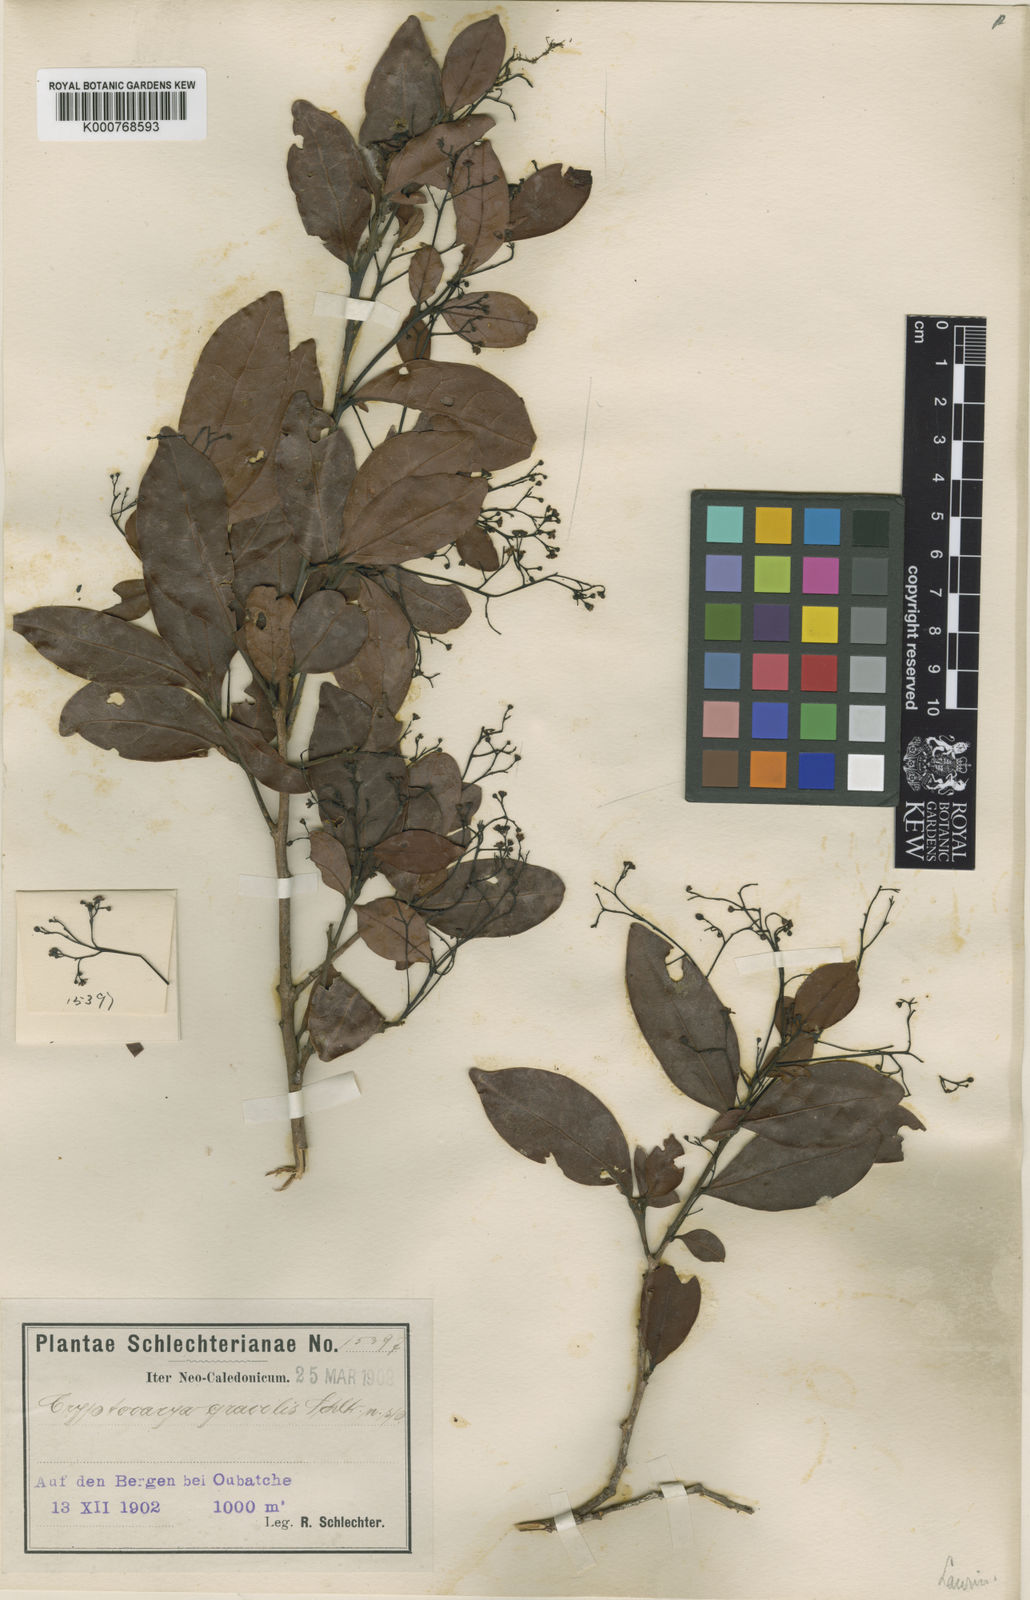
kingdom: Plantae
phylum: Tracheophyta
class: Magnoliopsida
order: Laurales
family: Lauraceae
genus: Cryptocarya
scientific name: Cryptocarya gracilis
